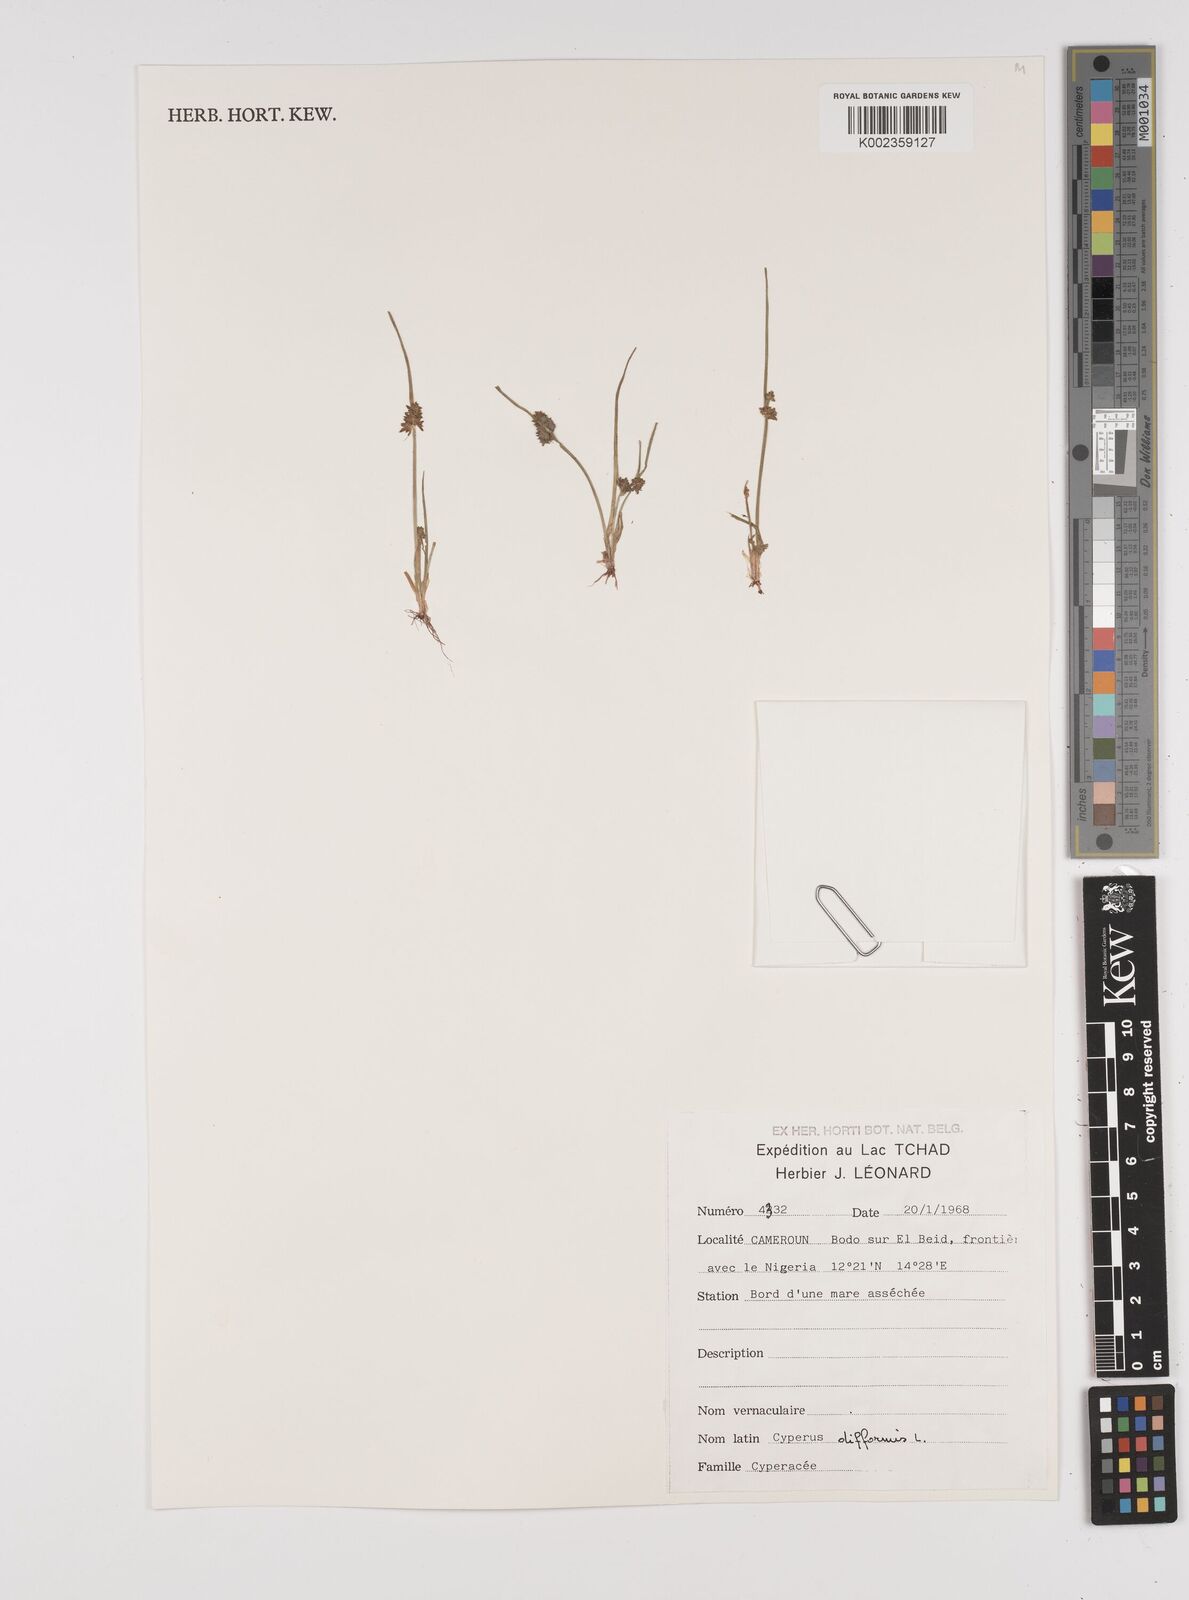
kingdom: Plantae
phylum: Tracheophyta
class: Liliopsida
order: Poales
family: Cyperaceae
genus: Cyperus
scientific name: Cyperus difformis
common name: Variable flatsedge
